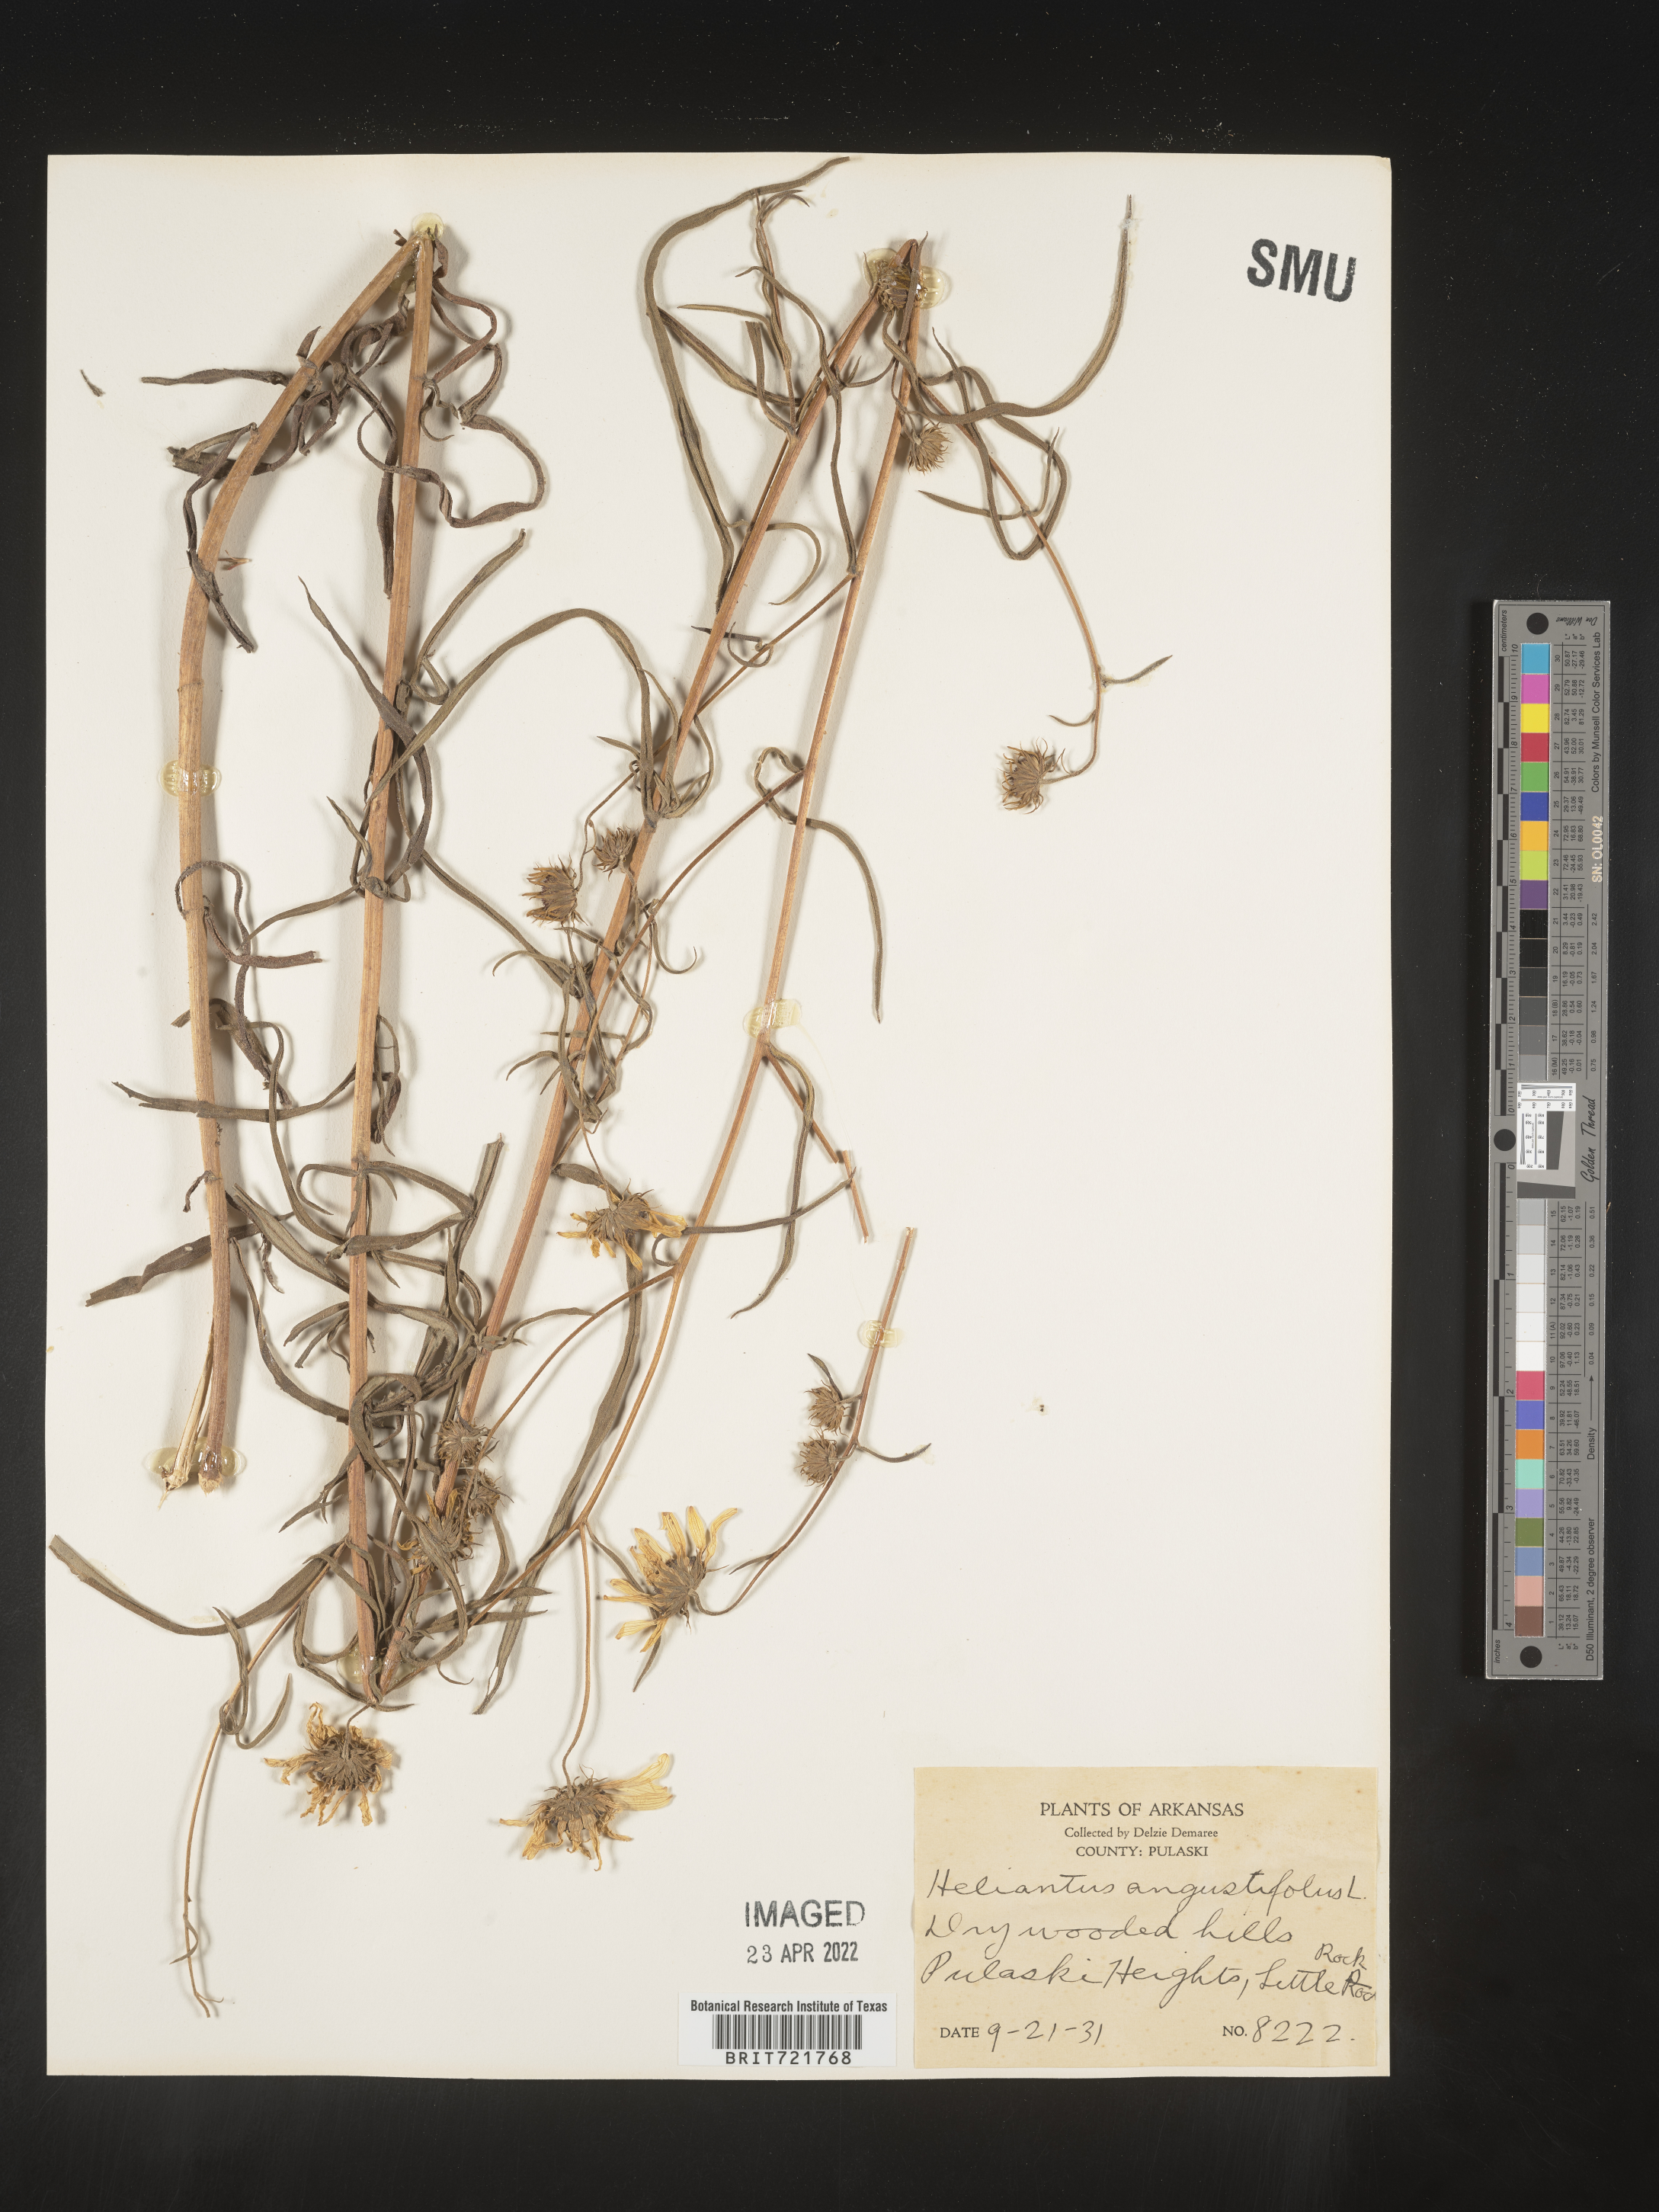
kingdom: Plantae
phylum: Tracheophyta
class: Magnoliopsida
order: Asterales
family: Asteraceae
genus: Helianthus
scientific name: Helianthus angustifolius
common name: Swamp sunflower
